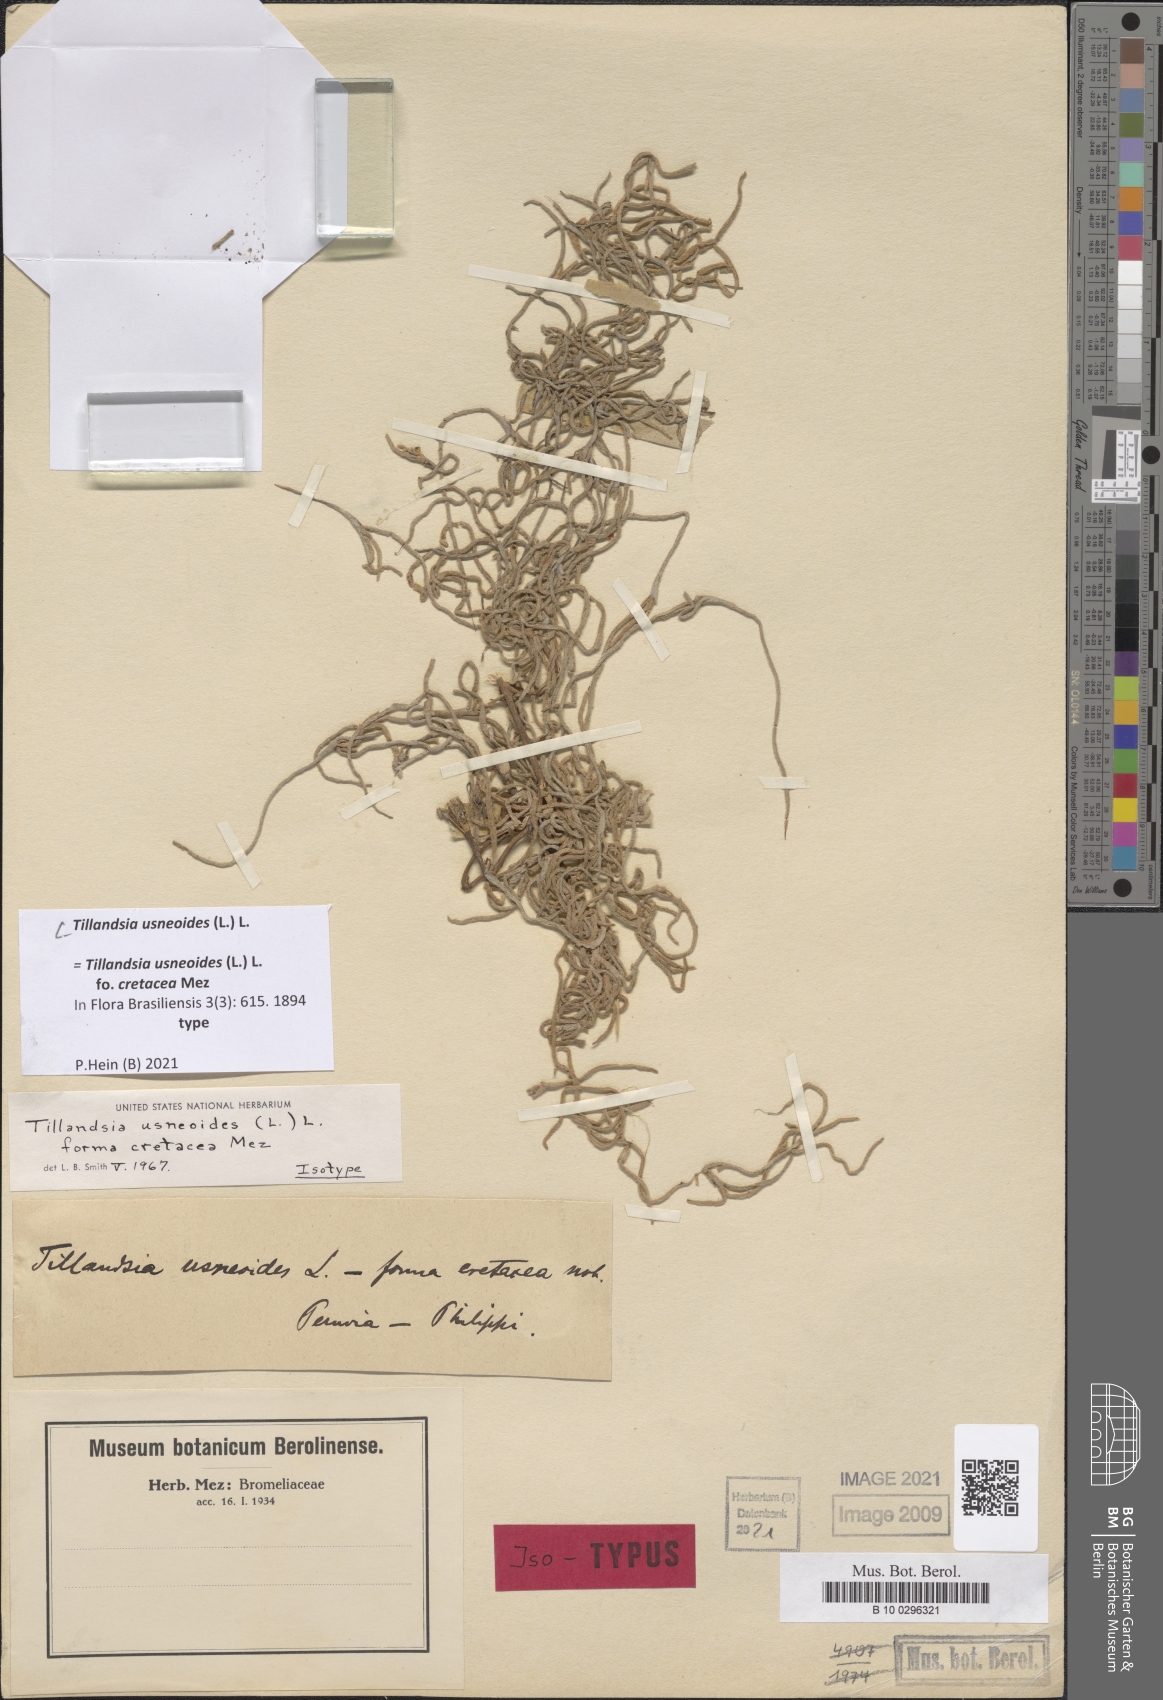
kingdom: Plantae
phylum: Tracheophyta
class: Liliopsida
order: Poales
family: Bromeliaceae
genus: Tillandsia
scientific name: Tillandsia usneoides
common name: Spanish moss
